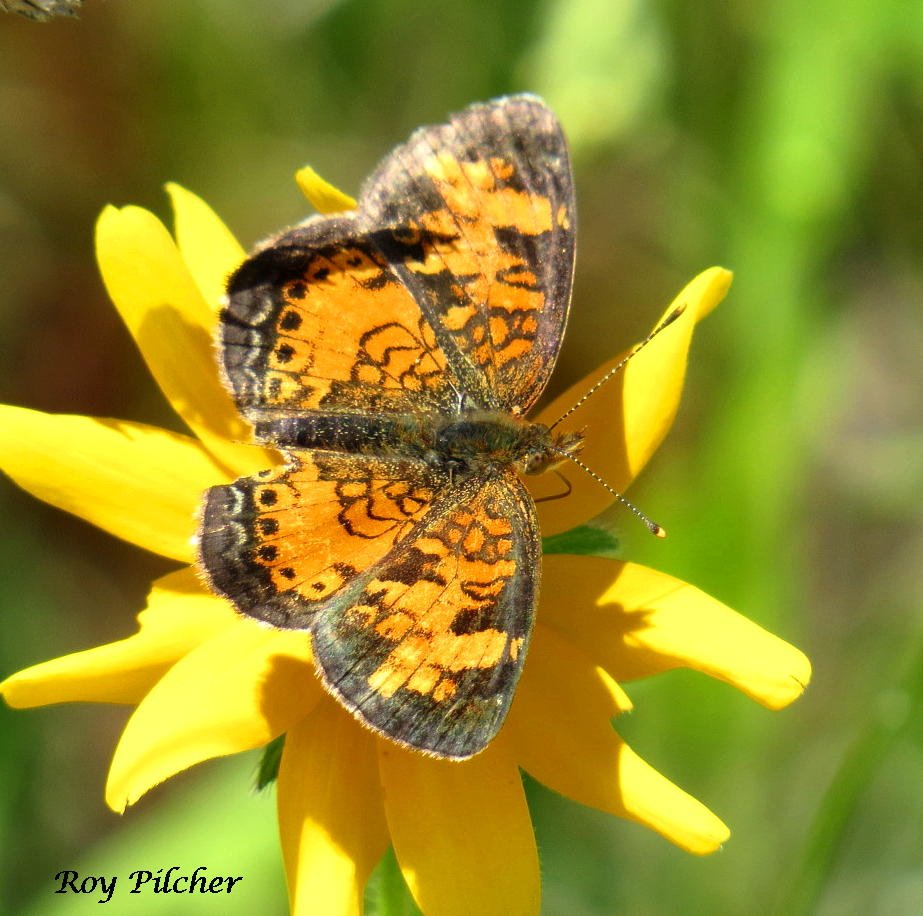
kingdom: Animalia
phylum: Arthropoda
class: Insecta
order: Lepidoptera
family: Nymphalidae
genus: Phyciodes
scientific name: Phyciodes tharos
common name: Northern Crescent
